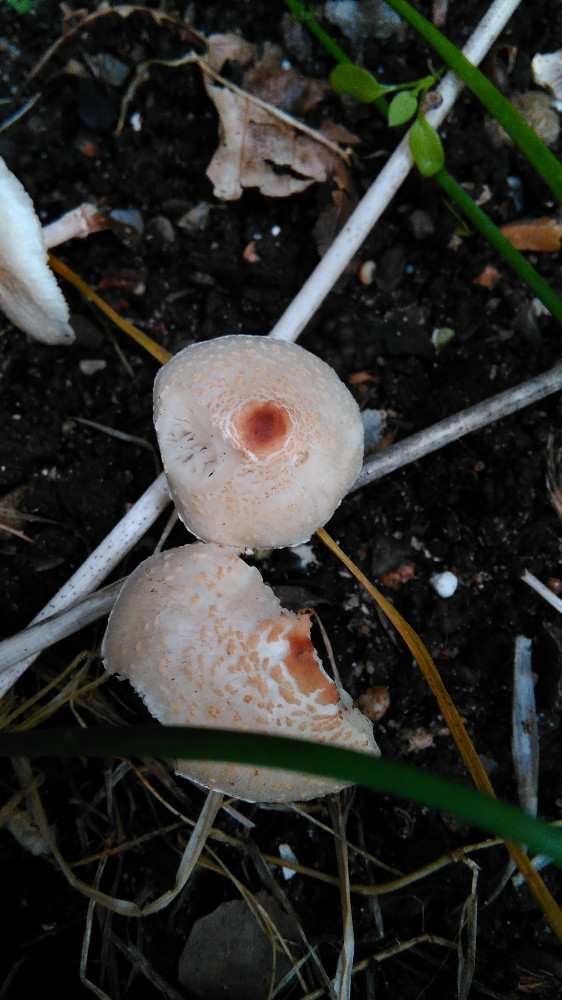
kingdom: Fungi
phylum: Basidiomycota
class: Agaricomycetes
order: Agaricales
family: Agaricaceae
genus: Lepiota
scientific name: Lepiota cristata
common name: stinkende parasolhat
